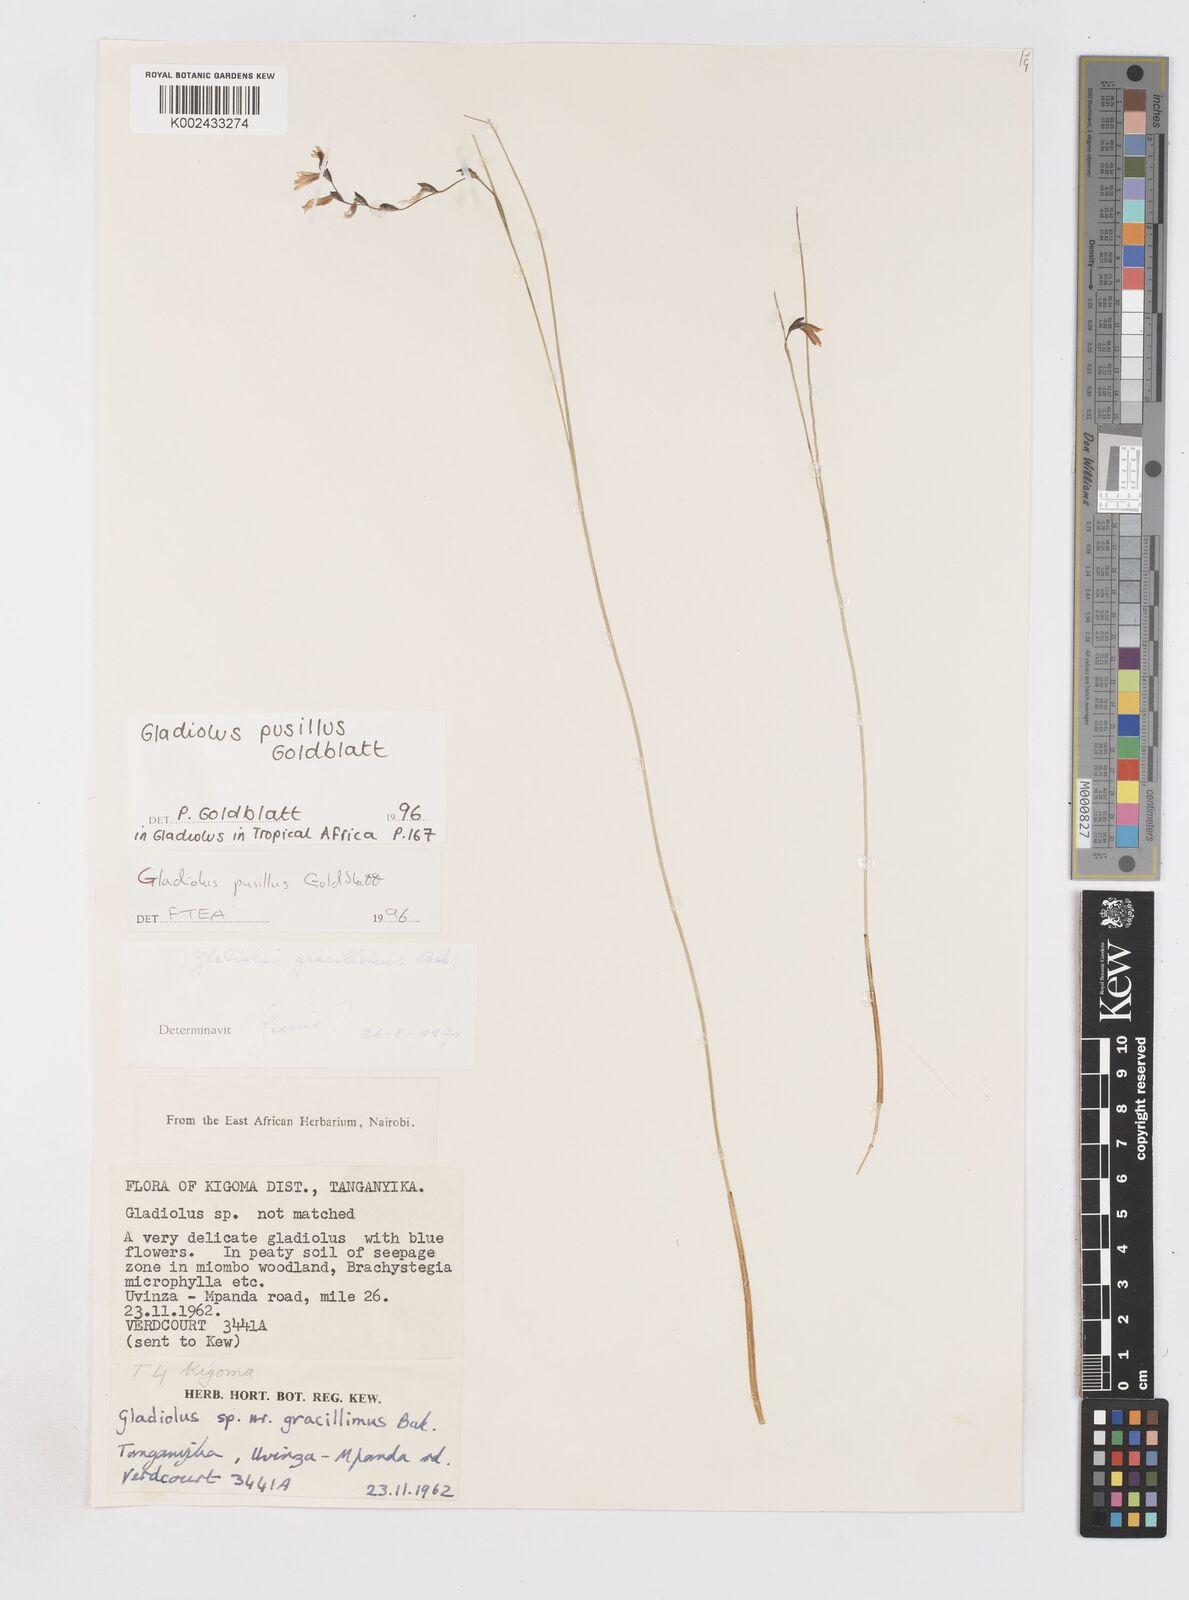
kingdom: Plantae
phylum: Tracheophyta
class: Liliopsida
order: Asparagales
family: Iridaceae
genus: Gladiolus
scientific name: Gladiolus pusillus
